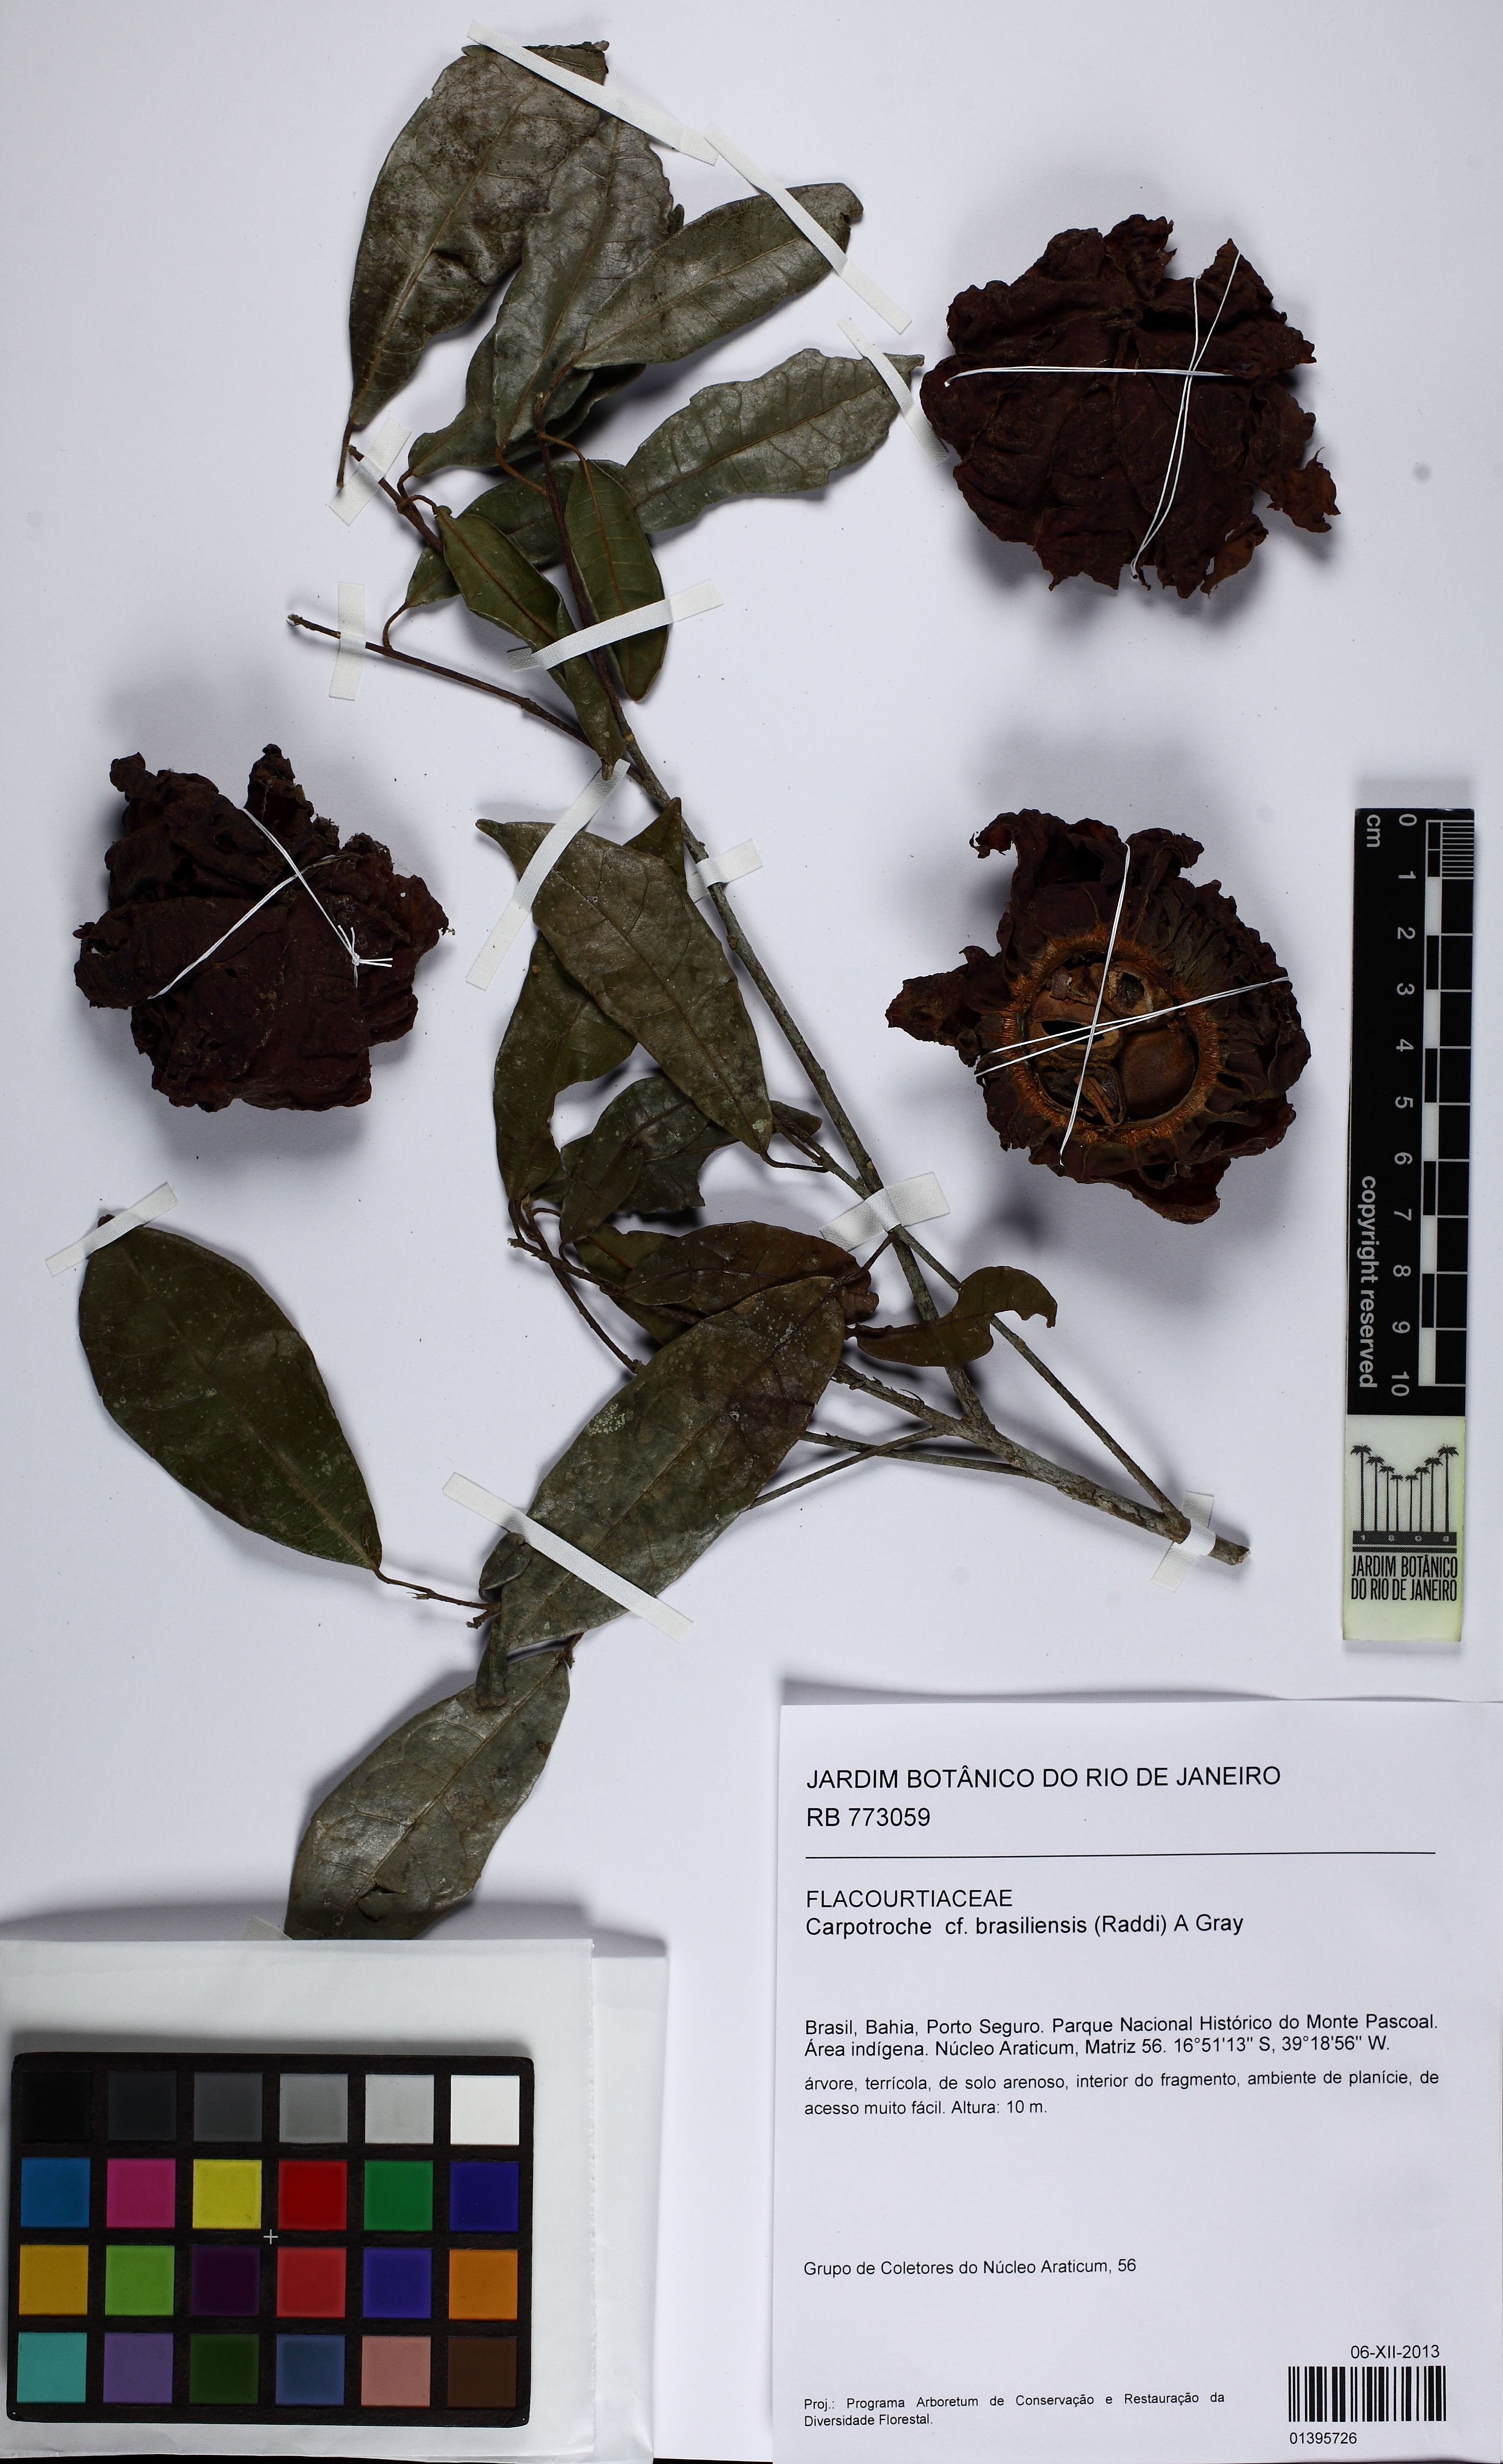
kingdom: Plantae
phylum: Tracheophyta
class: Magnoliopsida
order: Malpighiales
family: Achariaceae
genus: Carpotroche
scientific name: Carpotroche brasiliensis
